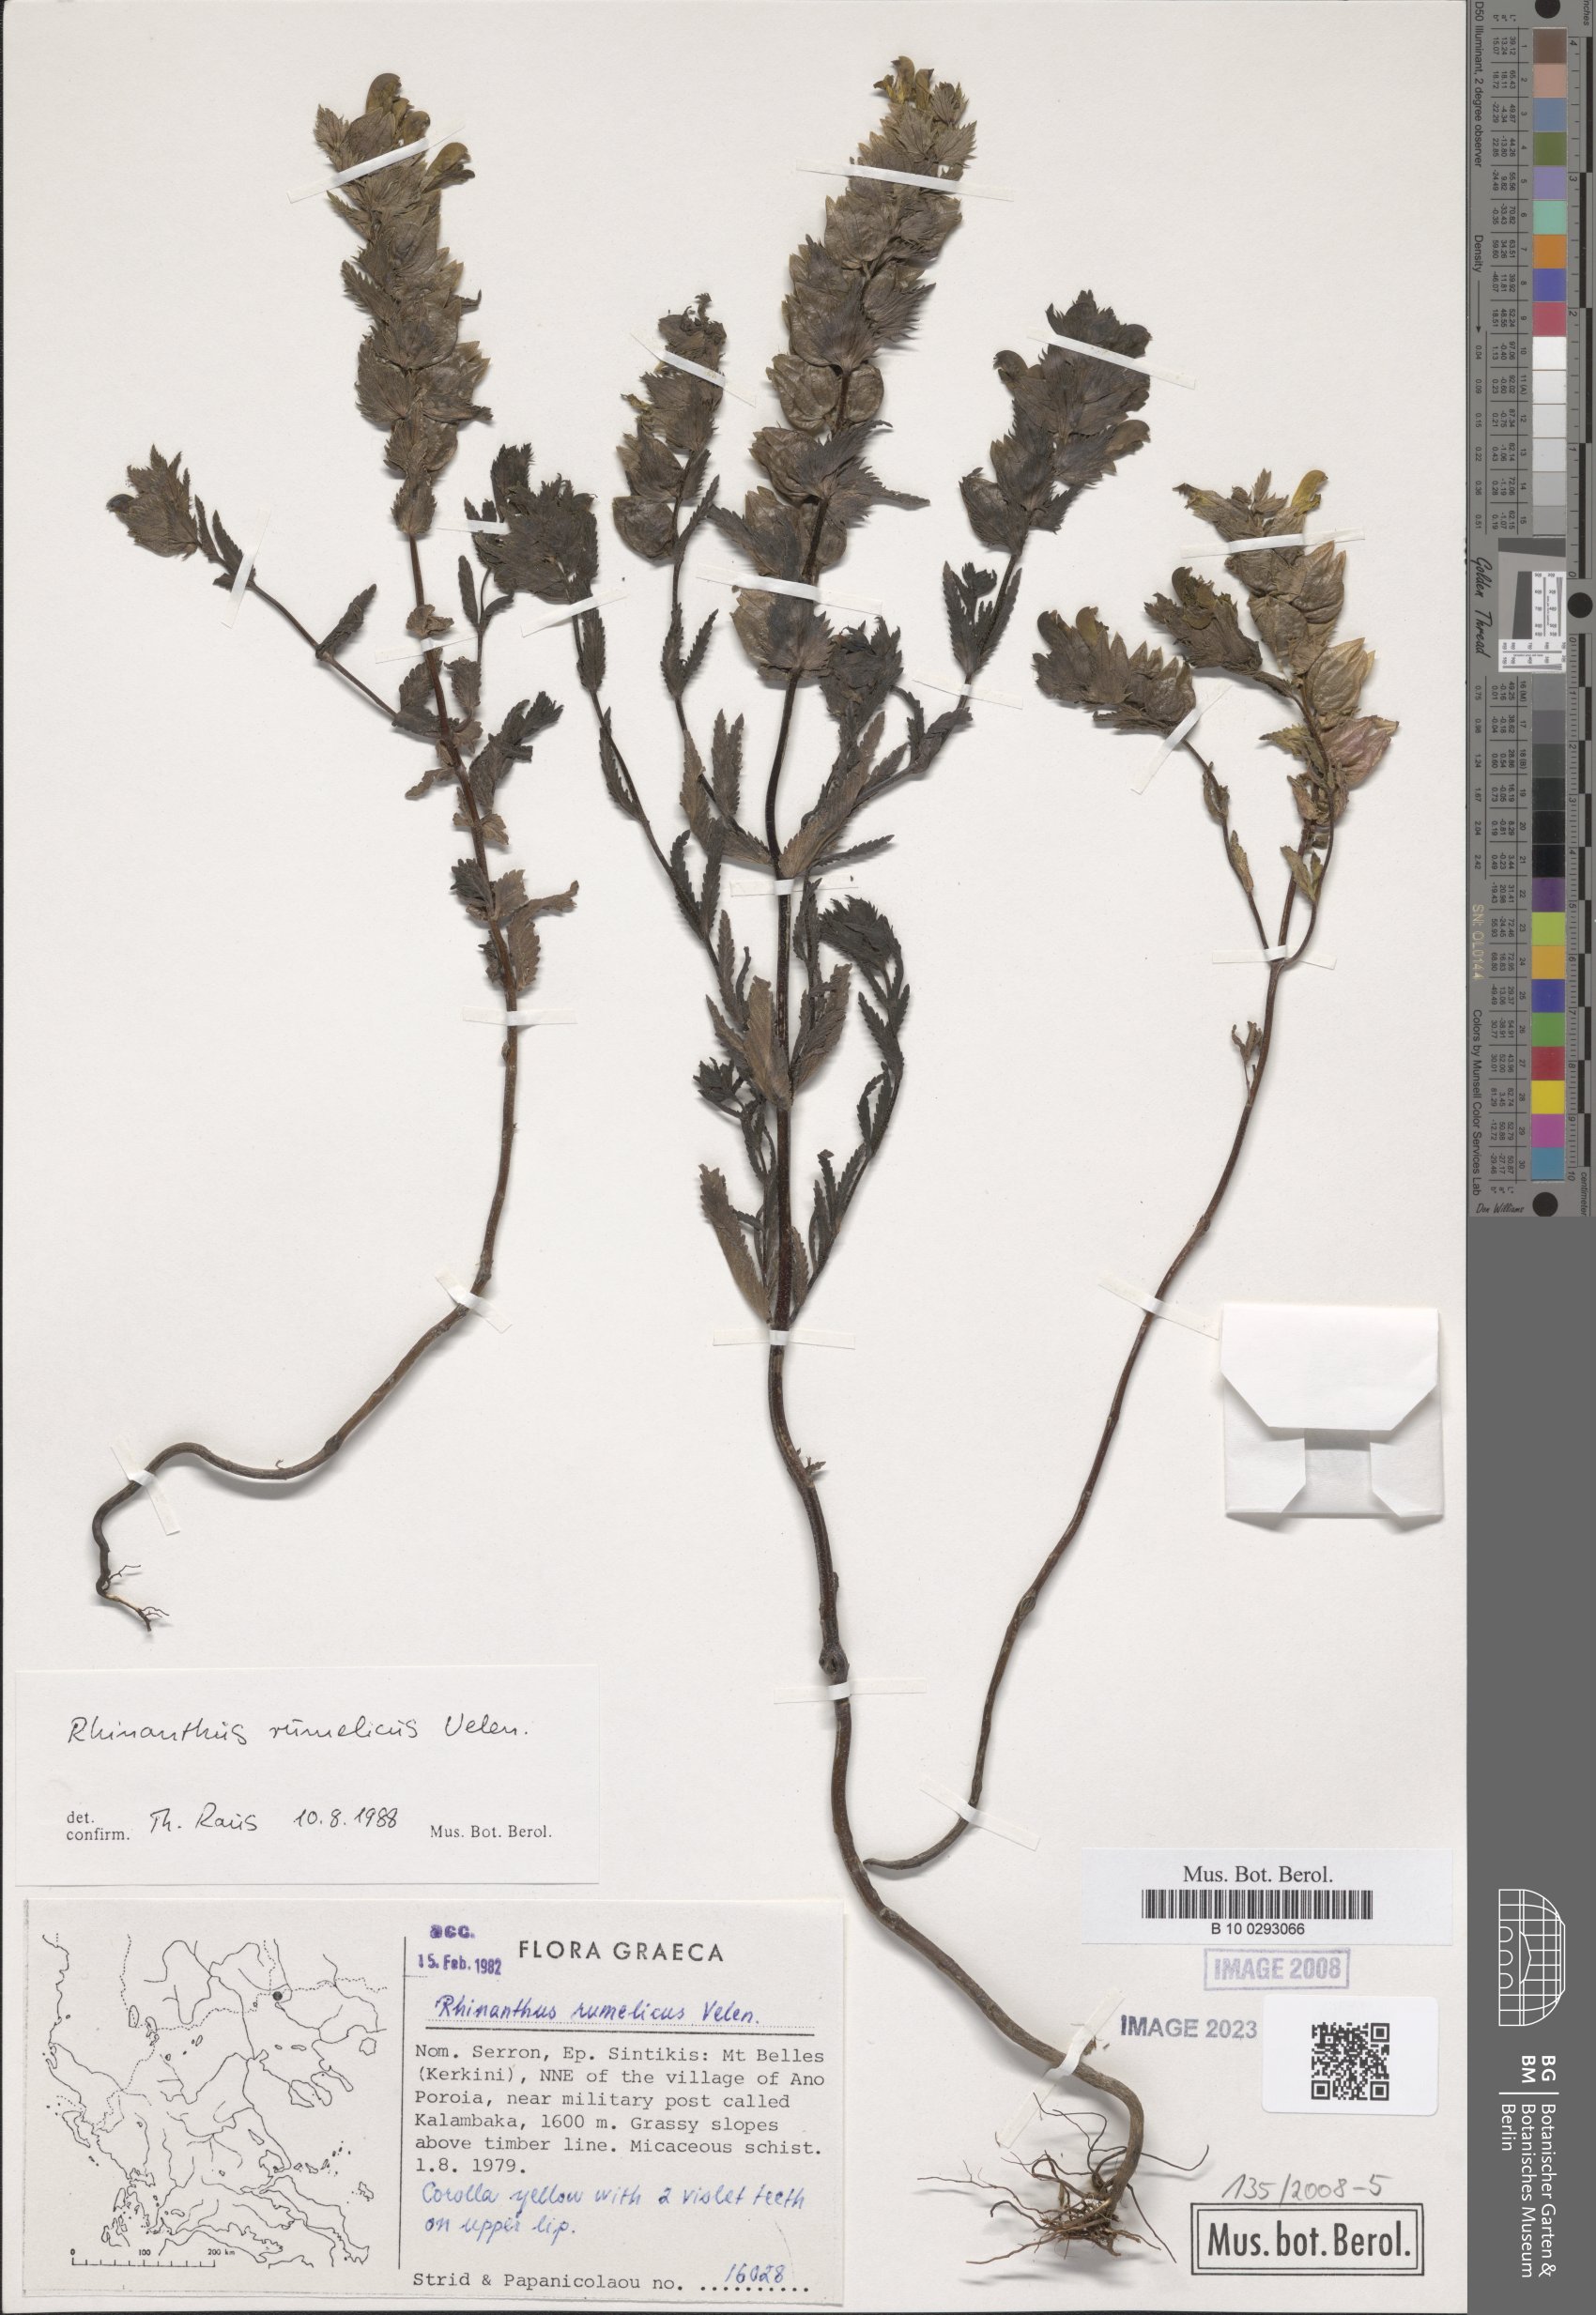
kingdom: Plantae
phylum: Tracheophyta
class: Magnoliopsida
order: Lamiales
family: Orobanchaceae
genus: Rhinanthus
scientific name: Rhinanthus rumelicus
